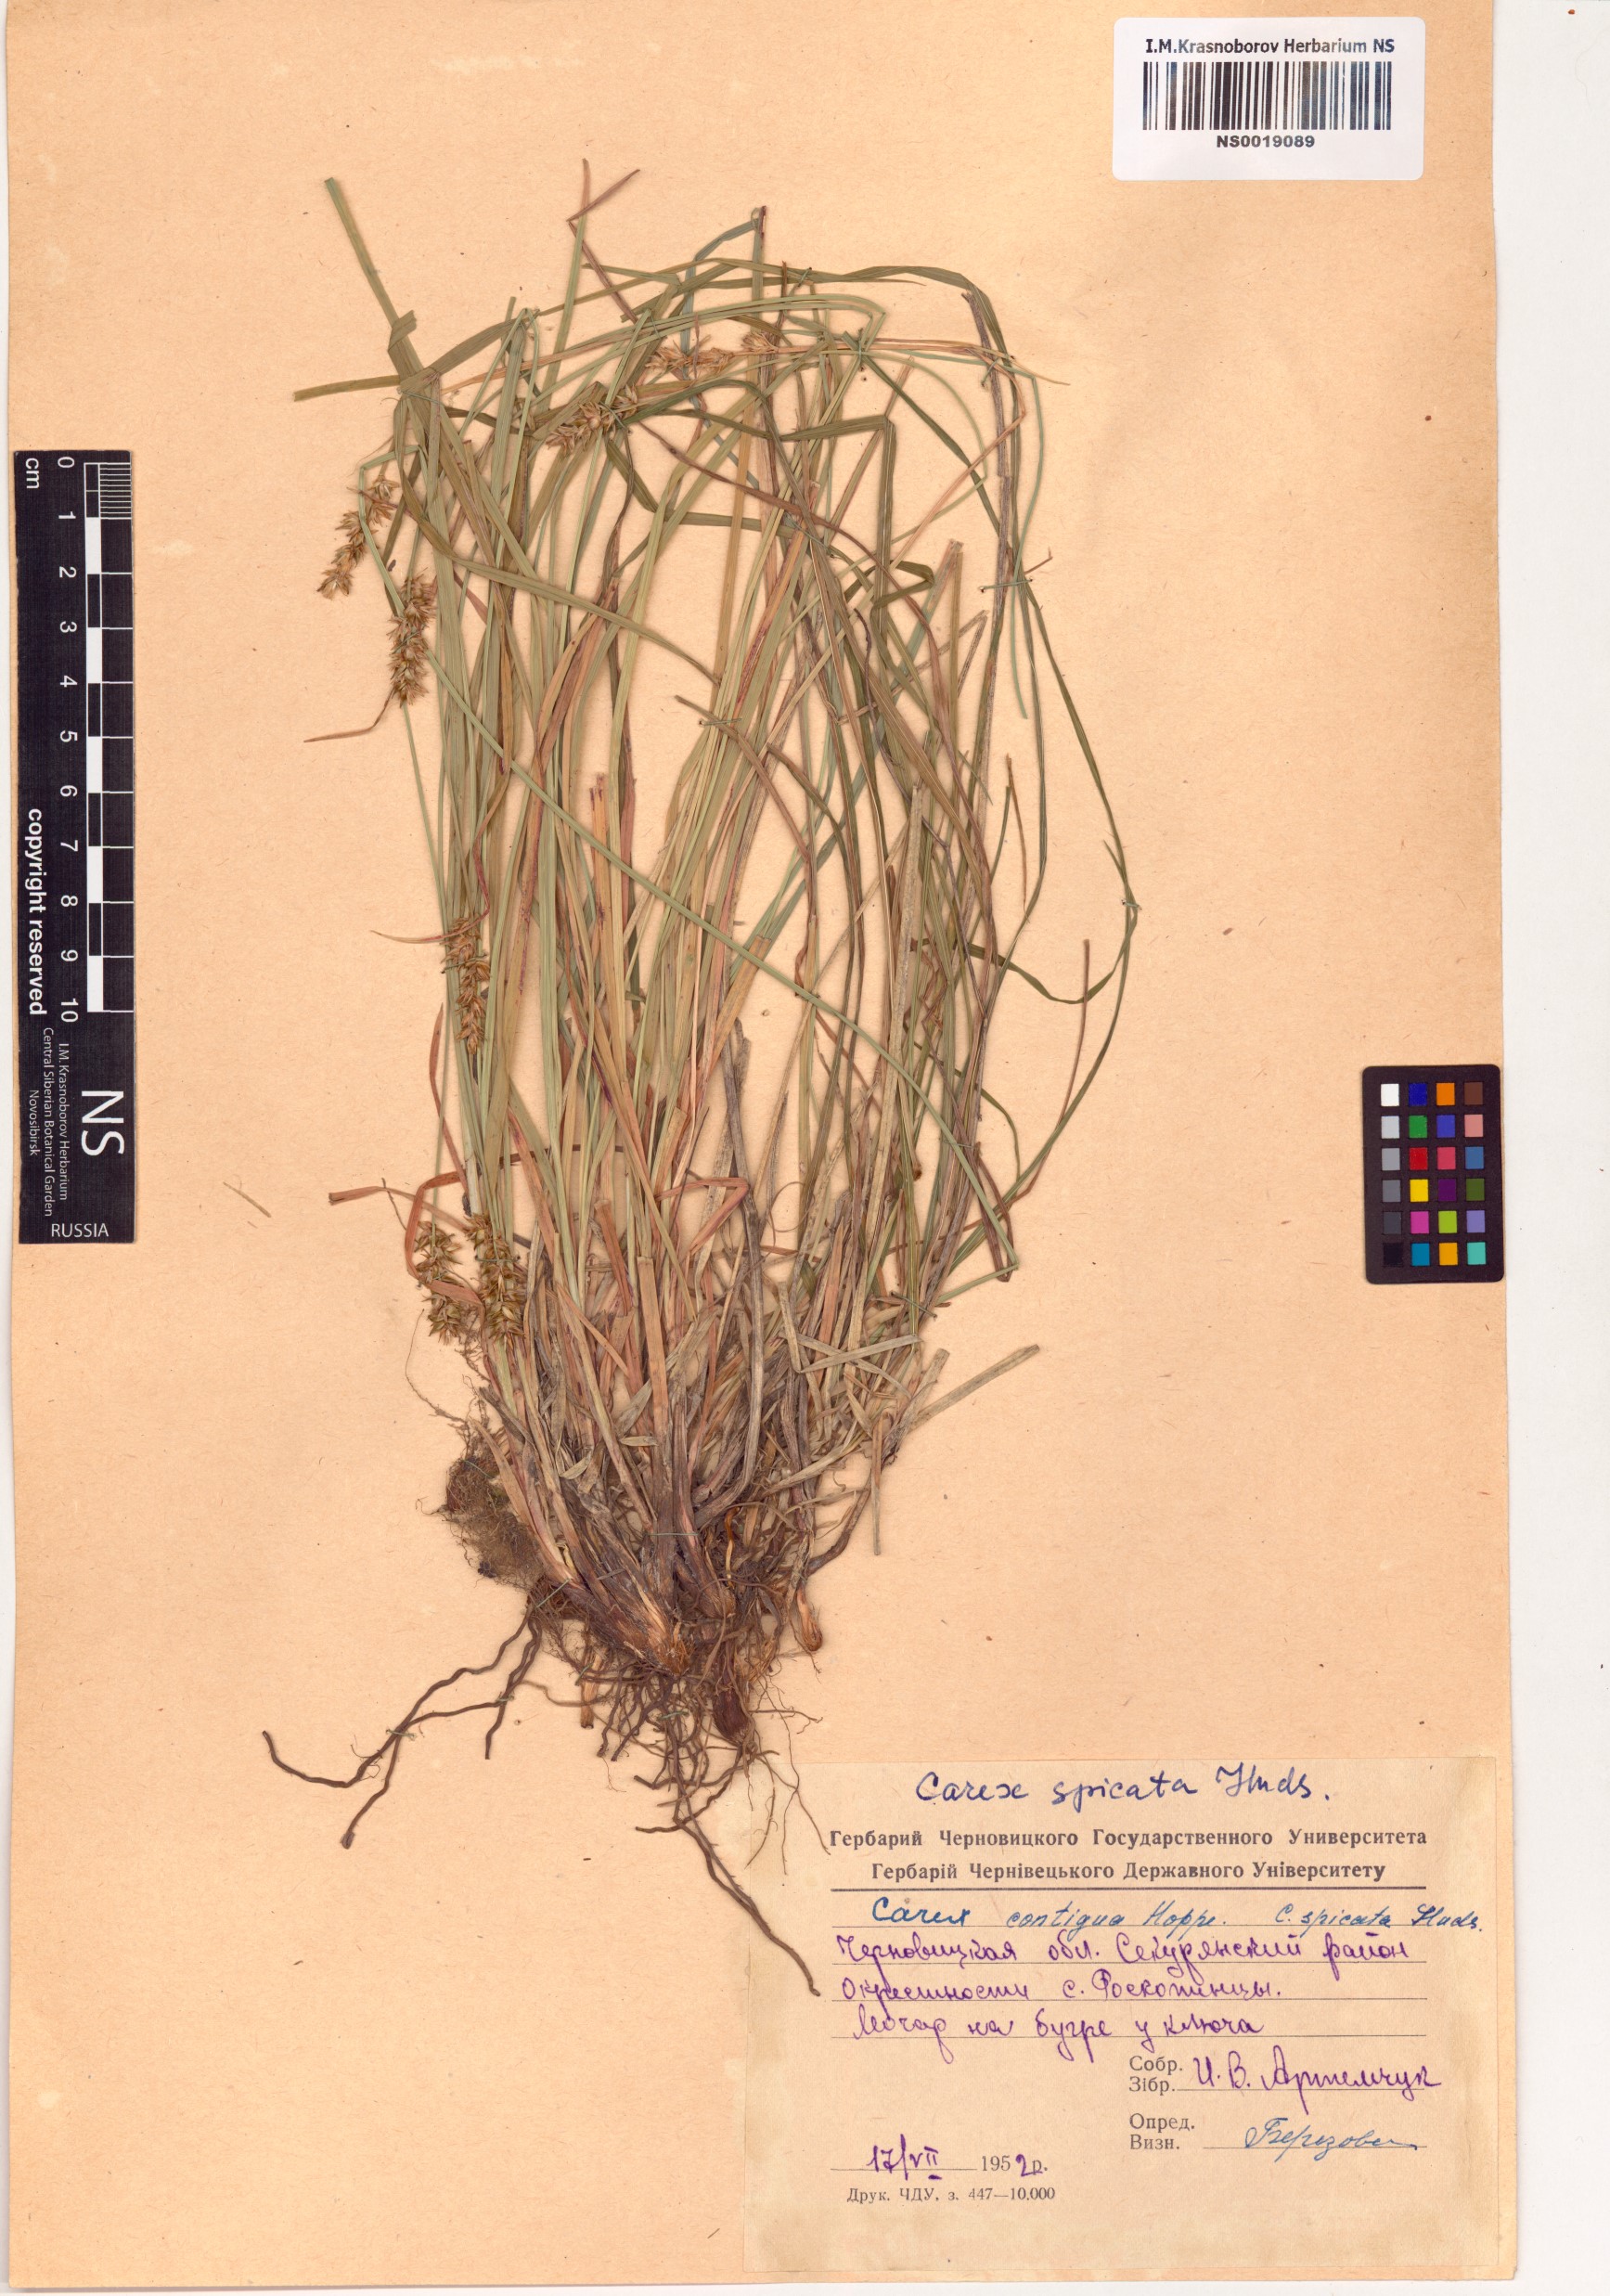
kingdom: Plantae
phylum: Tracheophyta
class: Liliopsida
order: Poales
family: Cyperaceae
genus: Carex
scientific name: Carex spicata
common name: Spiked sedge
